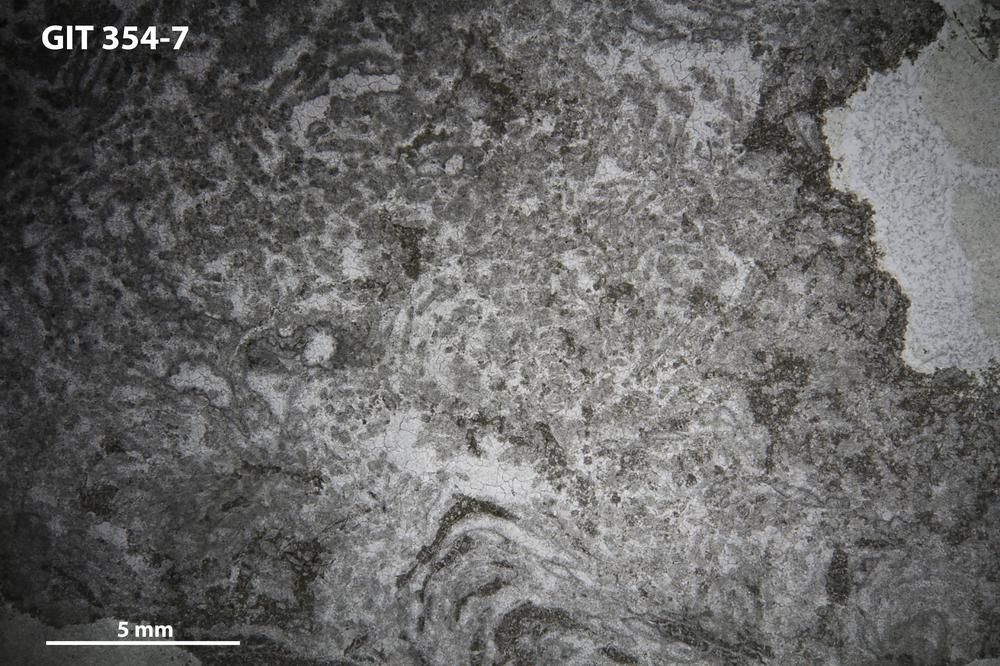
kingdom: Animalia
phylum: Porifera
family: Stromatoceriidae
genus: Cystistroma
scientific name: Cystistroma Stromatocerium canadense
